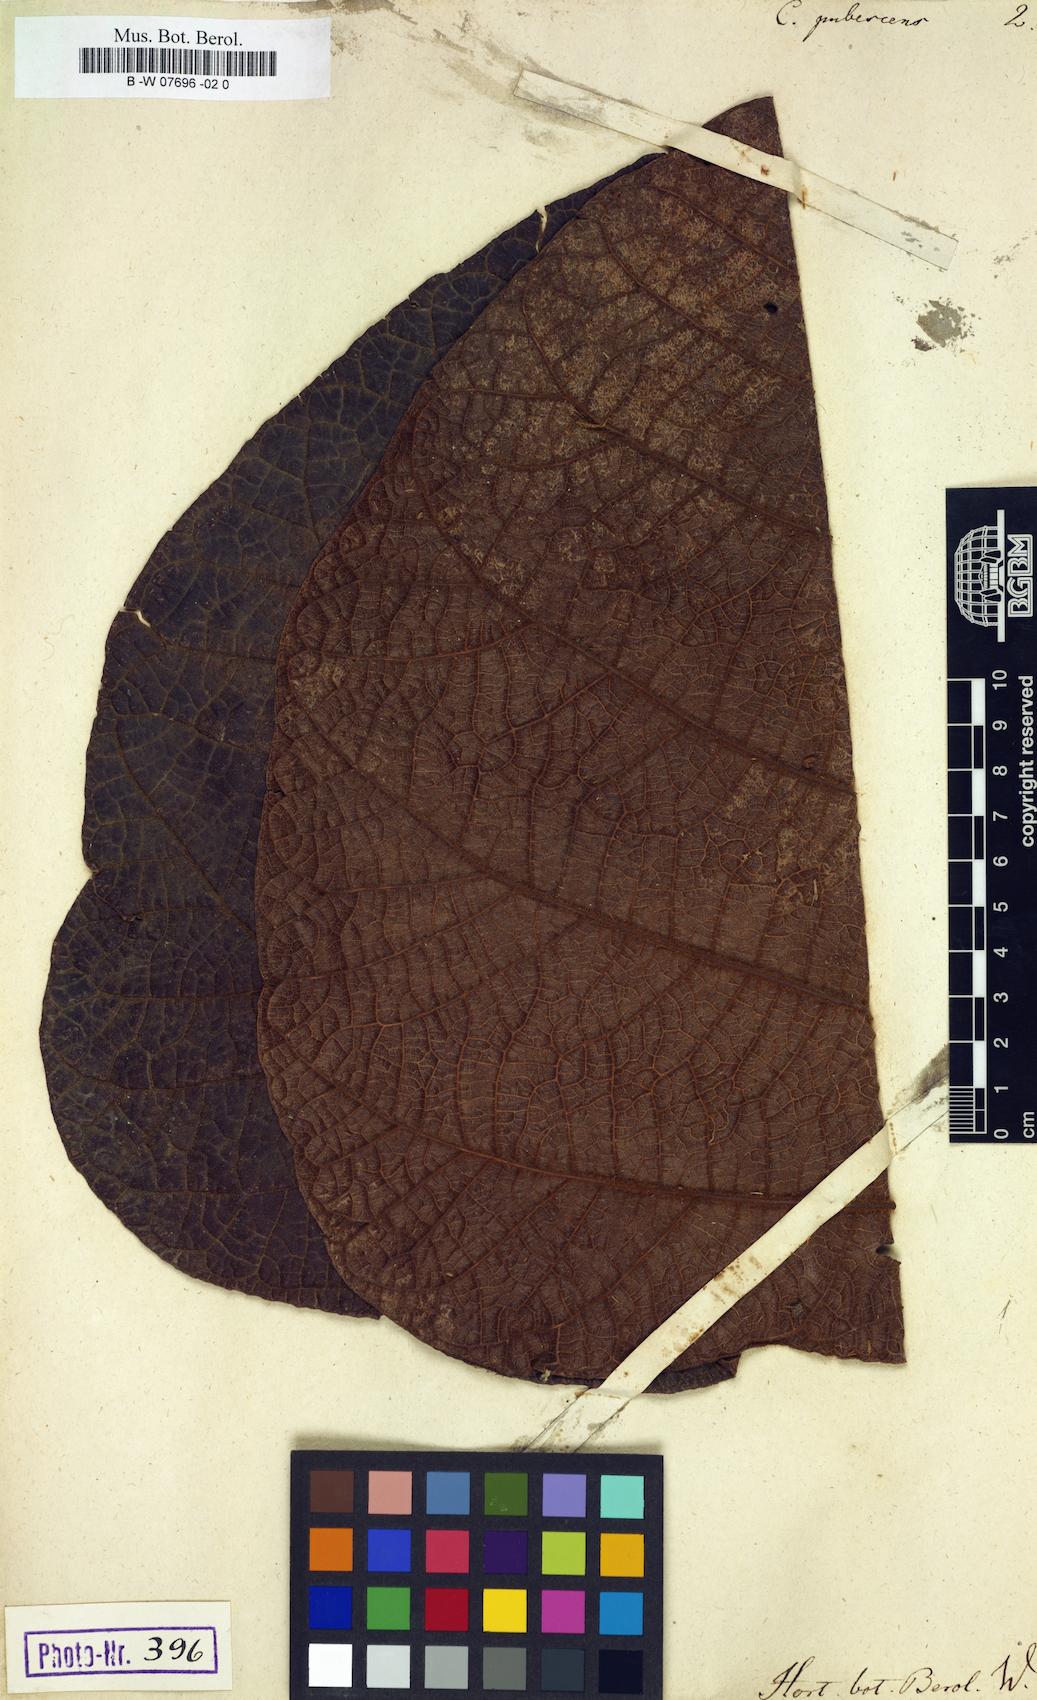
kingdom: Plantae
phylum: Tracheophyta
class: Magnoliopsida
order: Caryophyllales
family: Polygonaceae
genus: Coccoloba
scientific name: Coccoloba pubescens
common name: Mountain-grape
